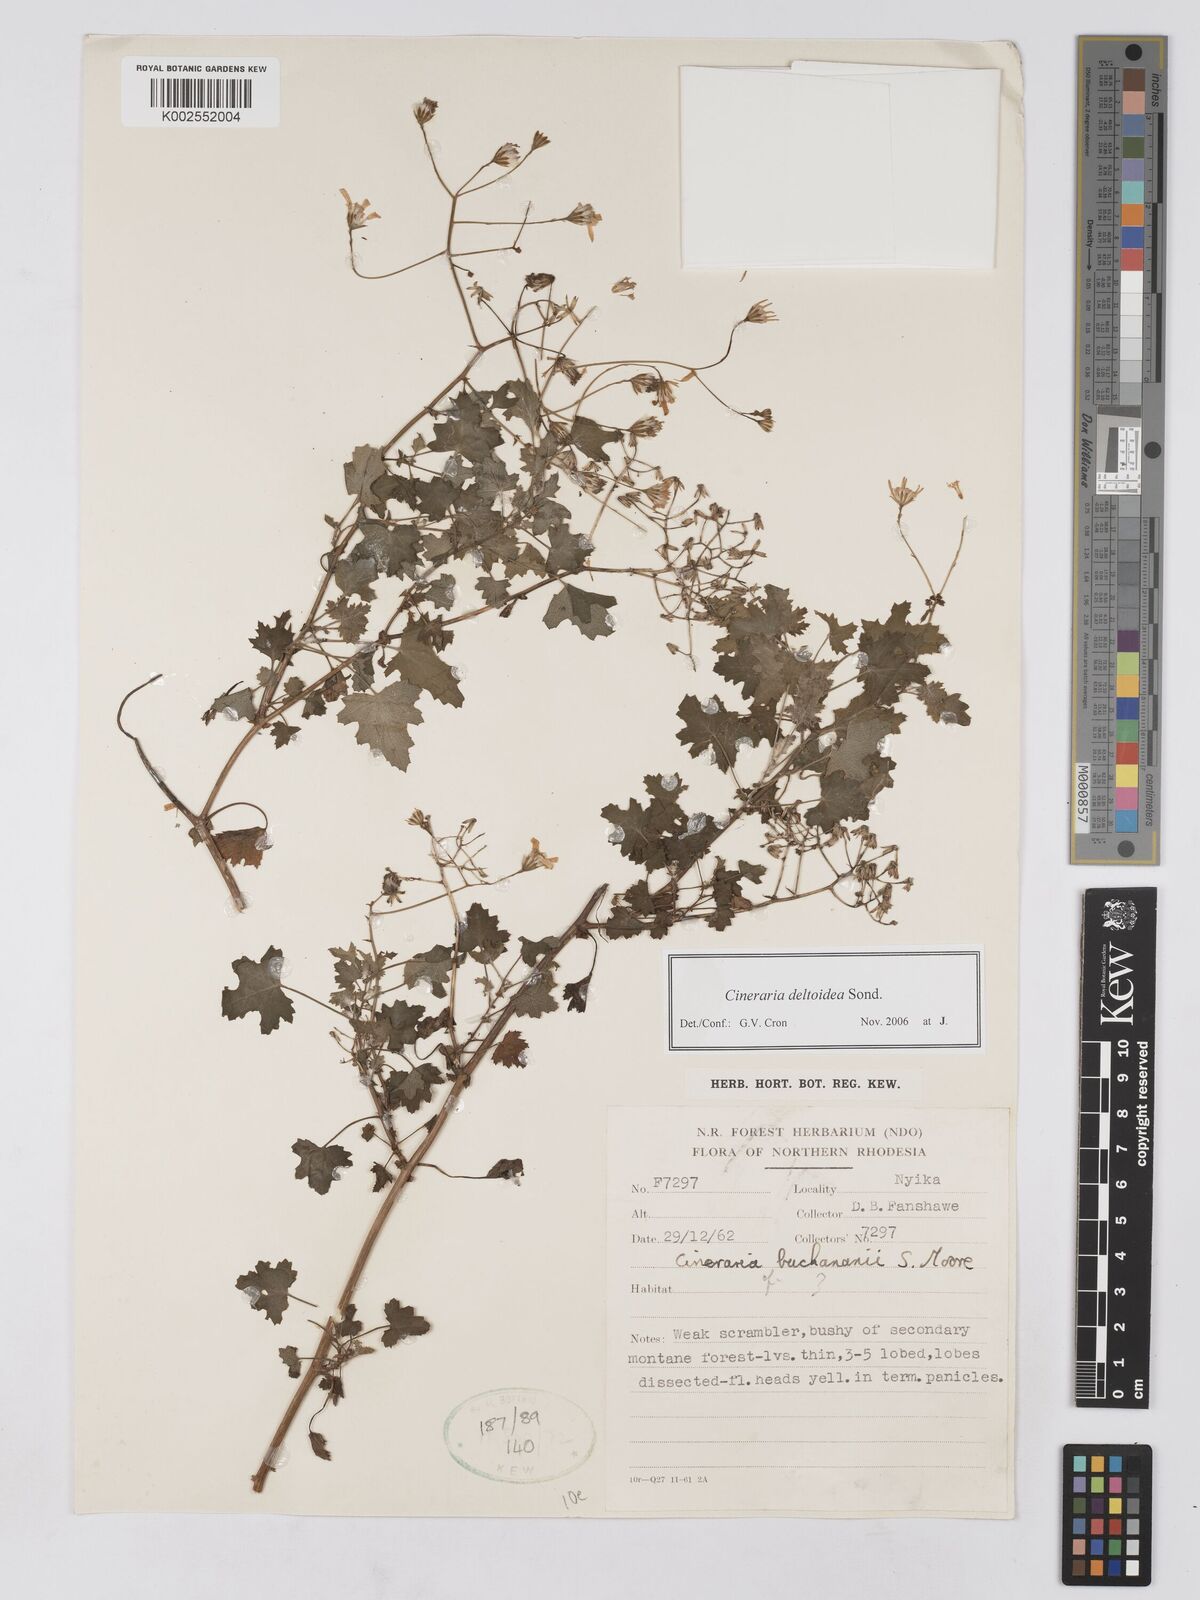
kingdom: Plantae
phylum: Tracheophyta
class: Magnoliopsida
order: Asterales
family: Asteraceae
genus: Cineraria
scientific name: Cineraria deltoidea
